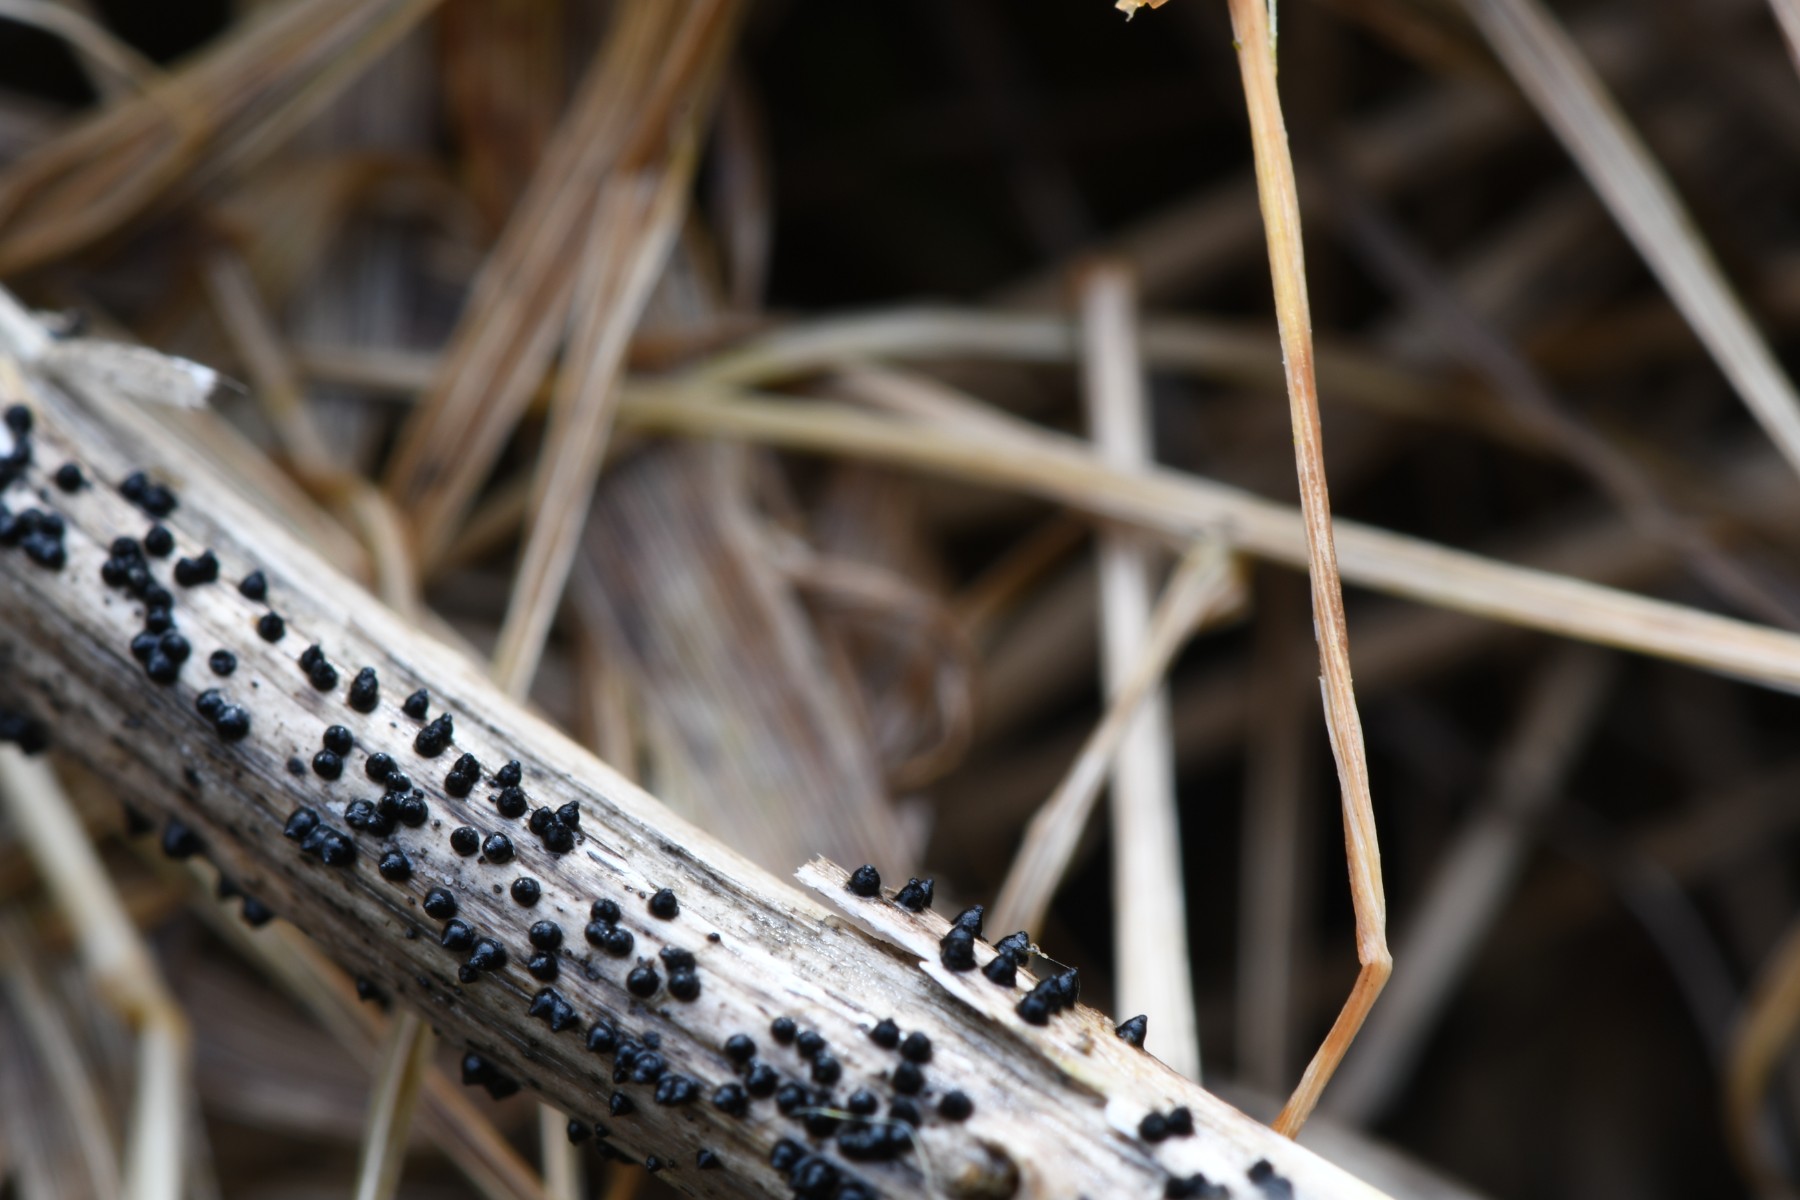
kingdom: Fungi
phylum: Ascomycota
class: Dothideomycetes
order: Pleosporales
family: Leptosphaeriaceae
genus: Leptosphaeria
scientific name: Leptosphaeria acuta
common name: spids kulkegle
